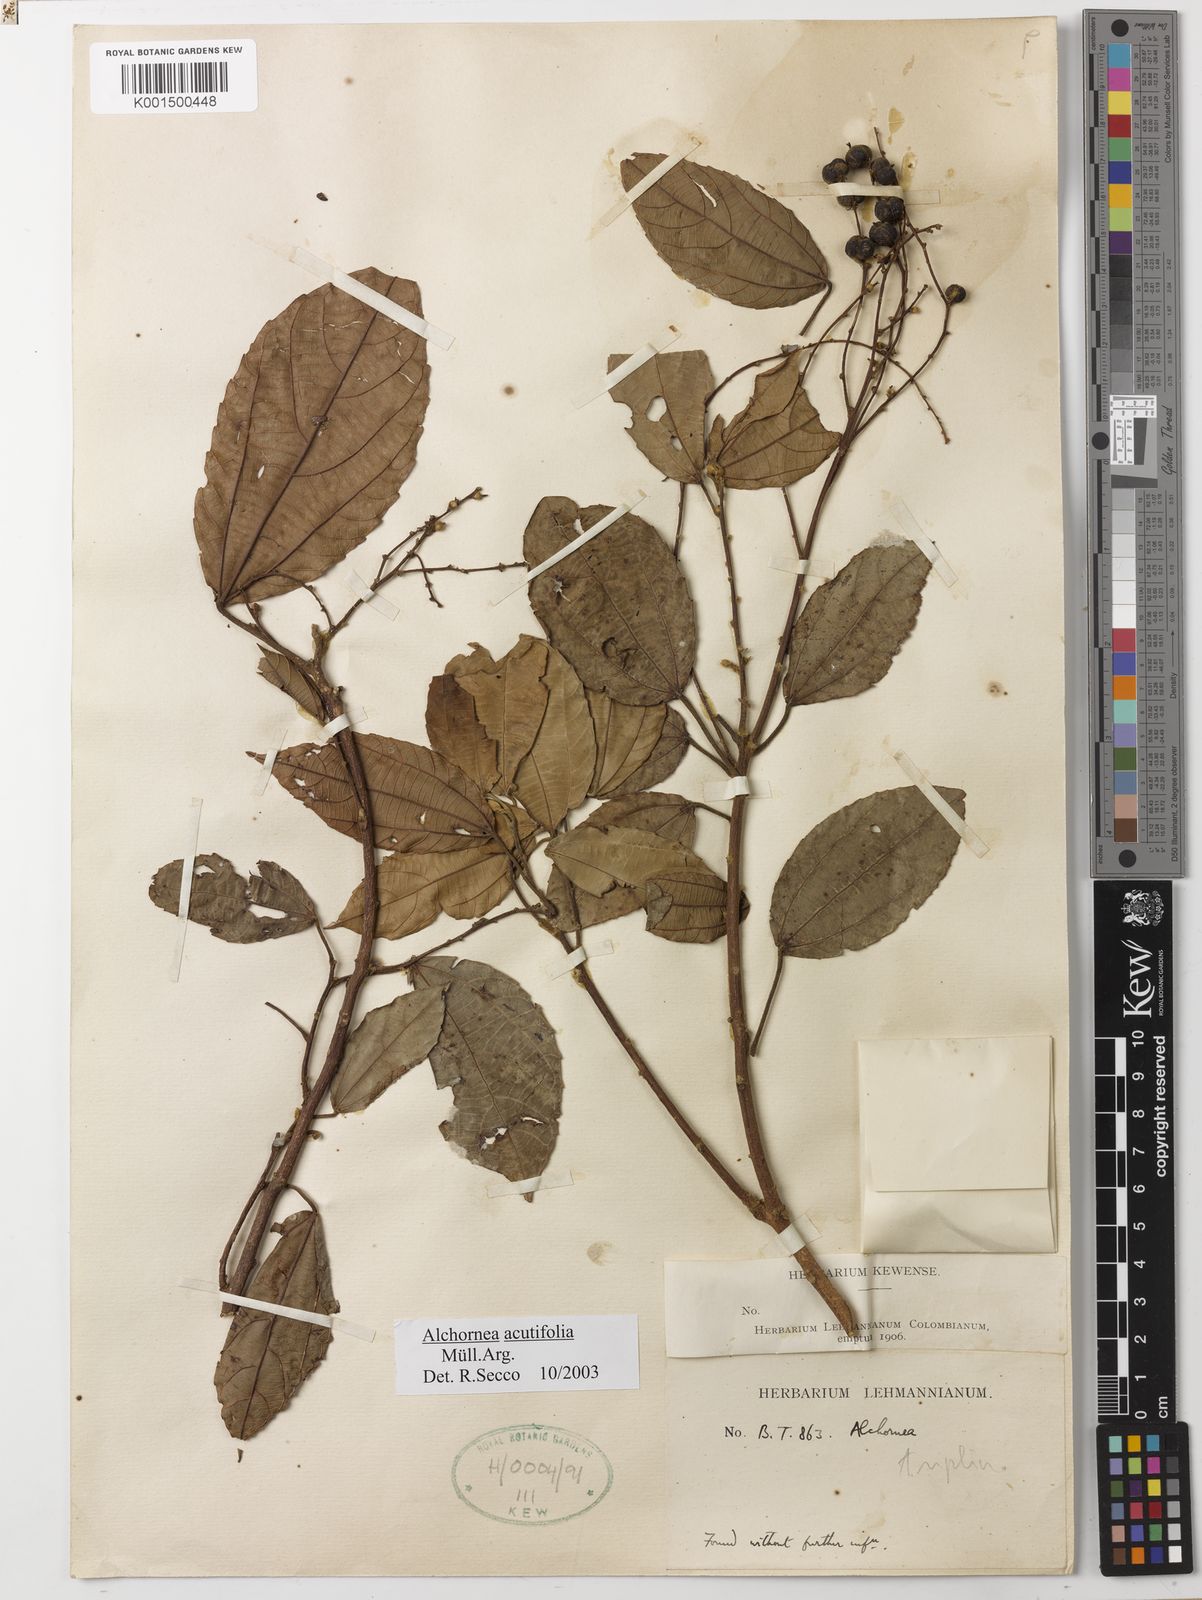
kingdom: Plantae
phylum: Tracheophyta
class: Magnoliopsida
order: Malpighiales
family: Euphorbiaceae
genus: Alchornea
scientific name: Alchornea acutifolia
